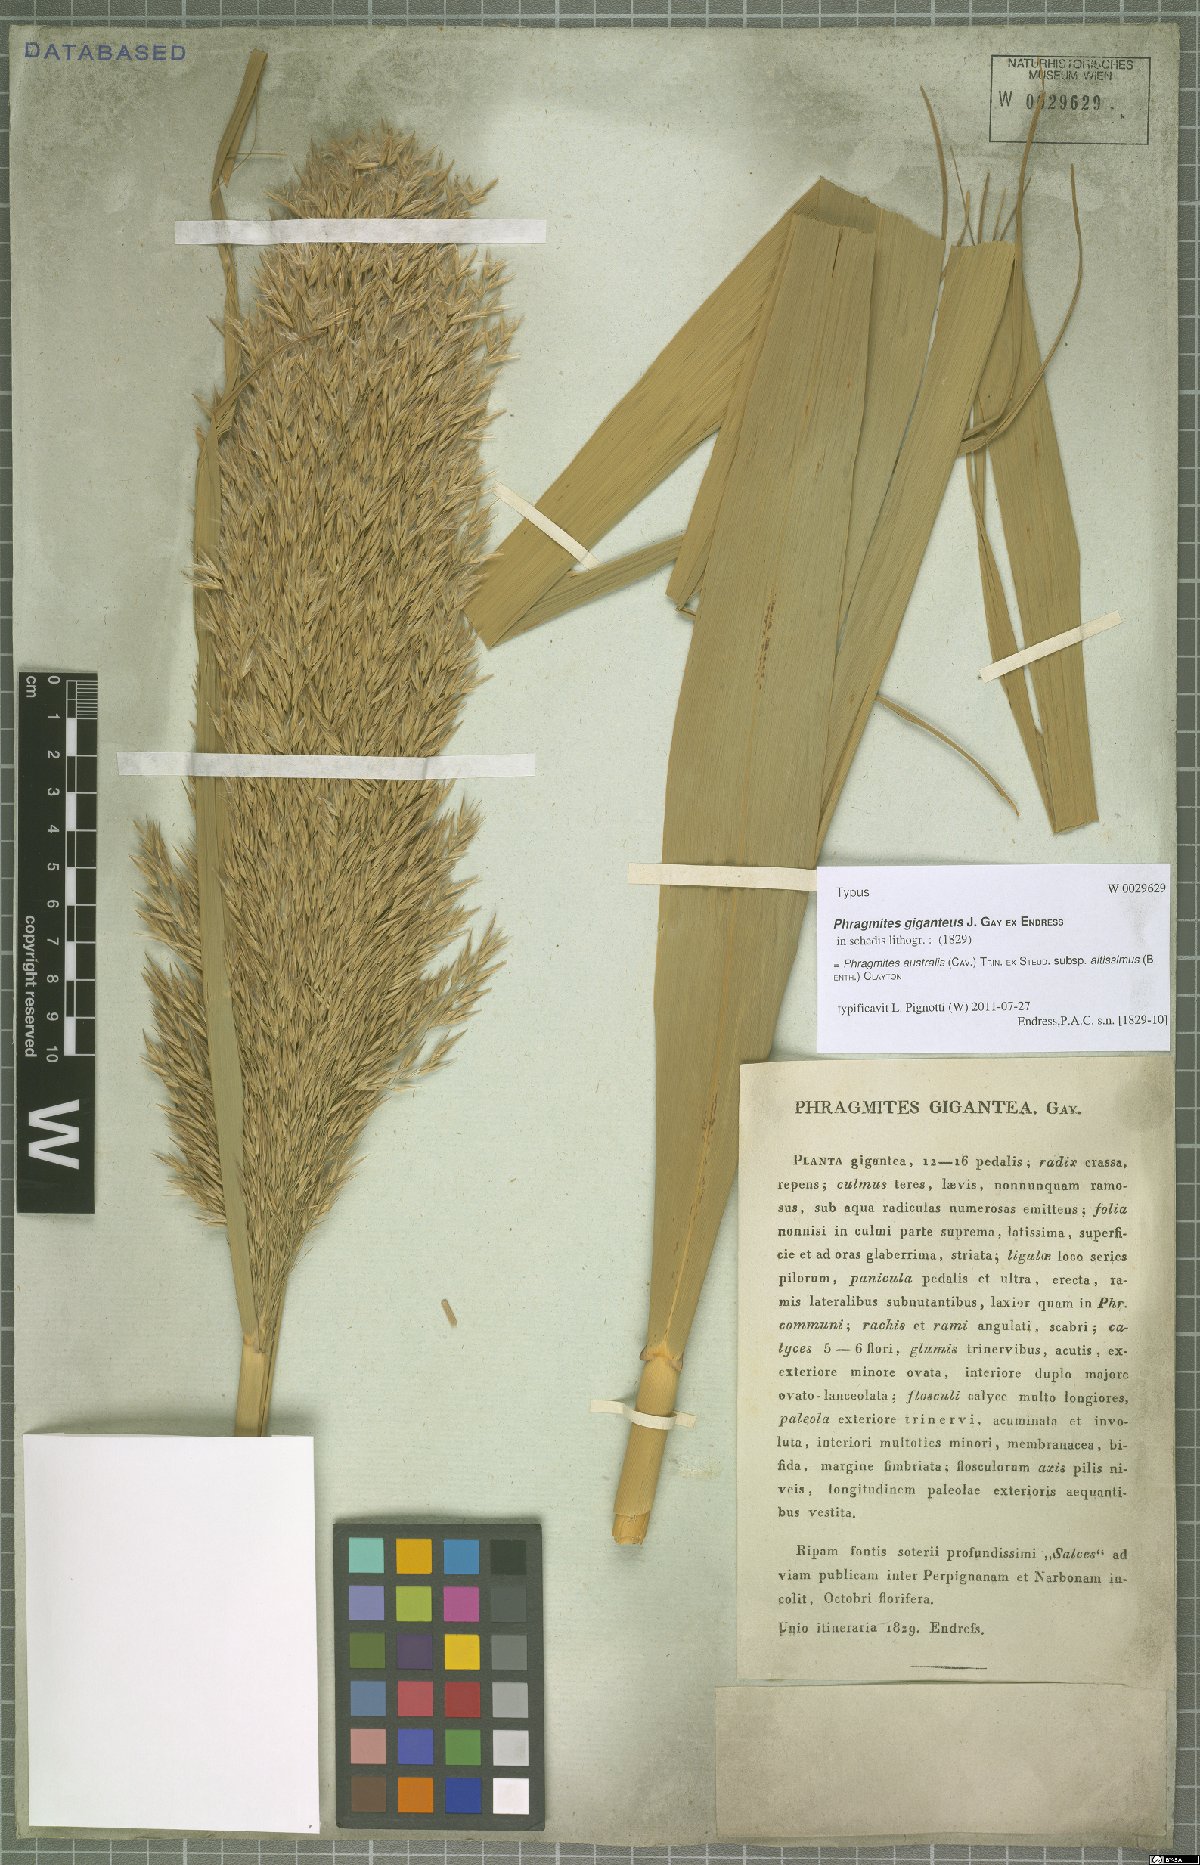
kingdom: Plantae
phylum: Tracheophyta
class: Liliopsida
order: Poales
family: Poaceae
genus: Phragmites
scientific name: Phragmites australis
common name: Common reed
